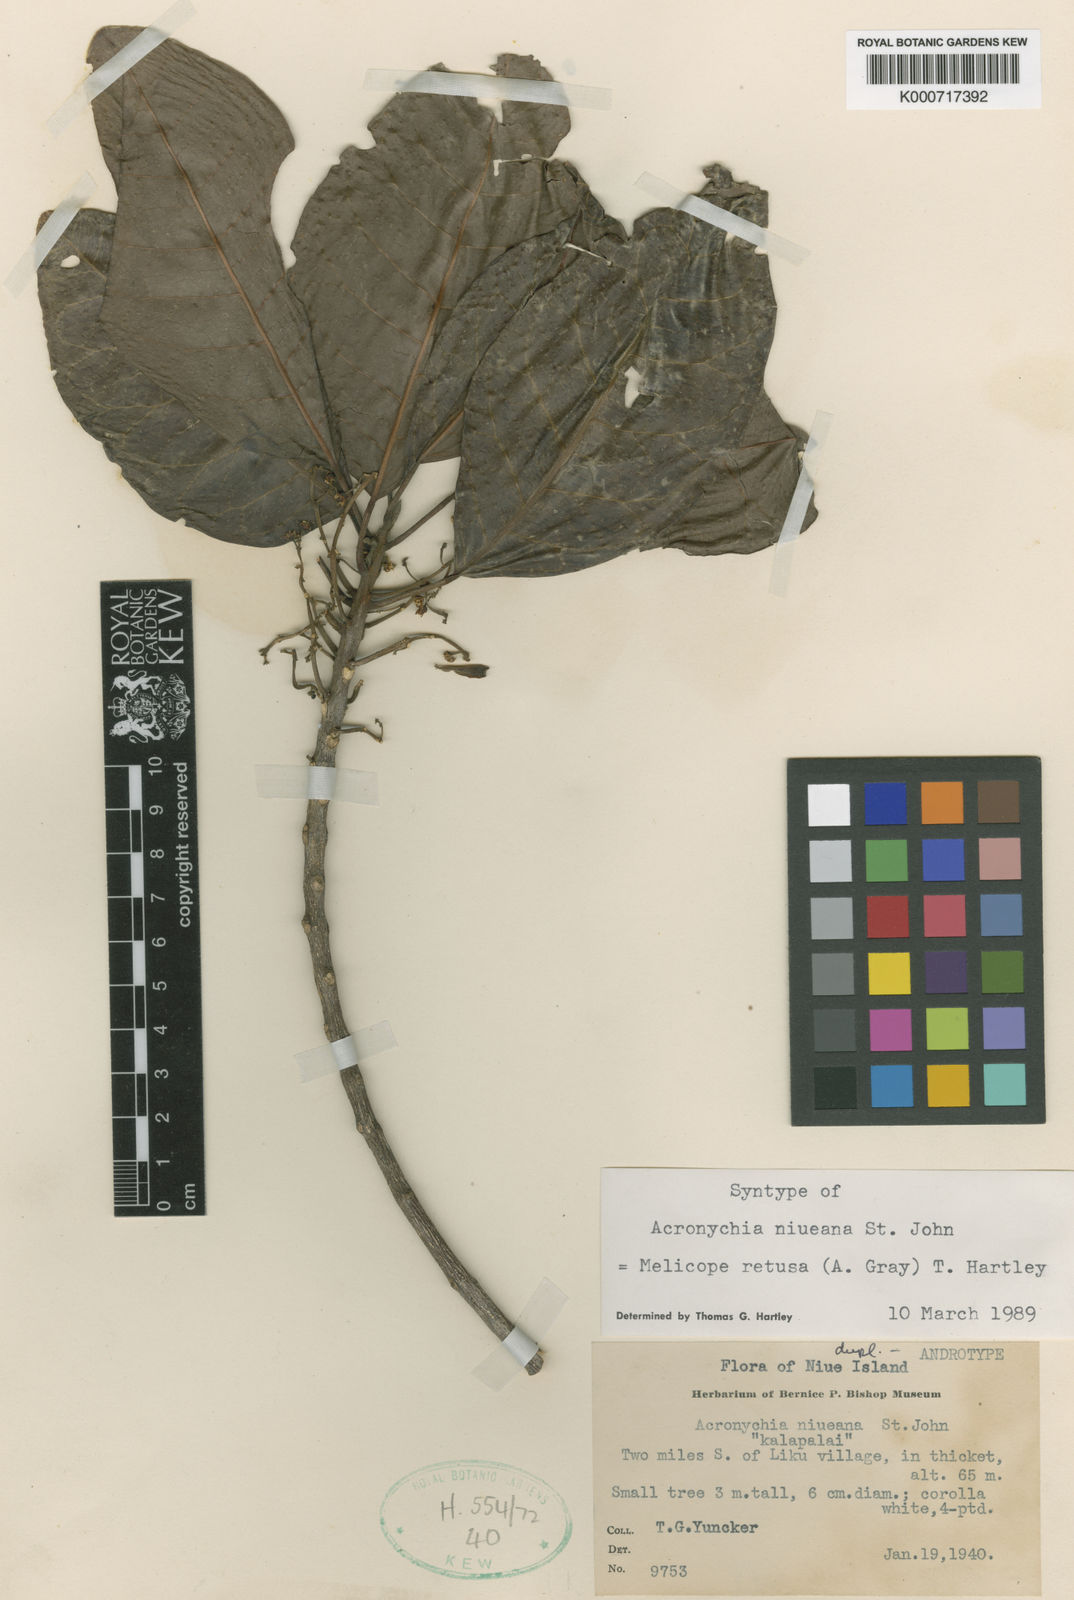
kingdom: Plantae
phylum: Tracheophyta
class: Magnoliopsida
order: Sapindales
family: Rutaceae
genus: Melicope
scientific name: Melicope retusa
